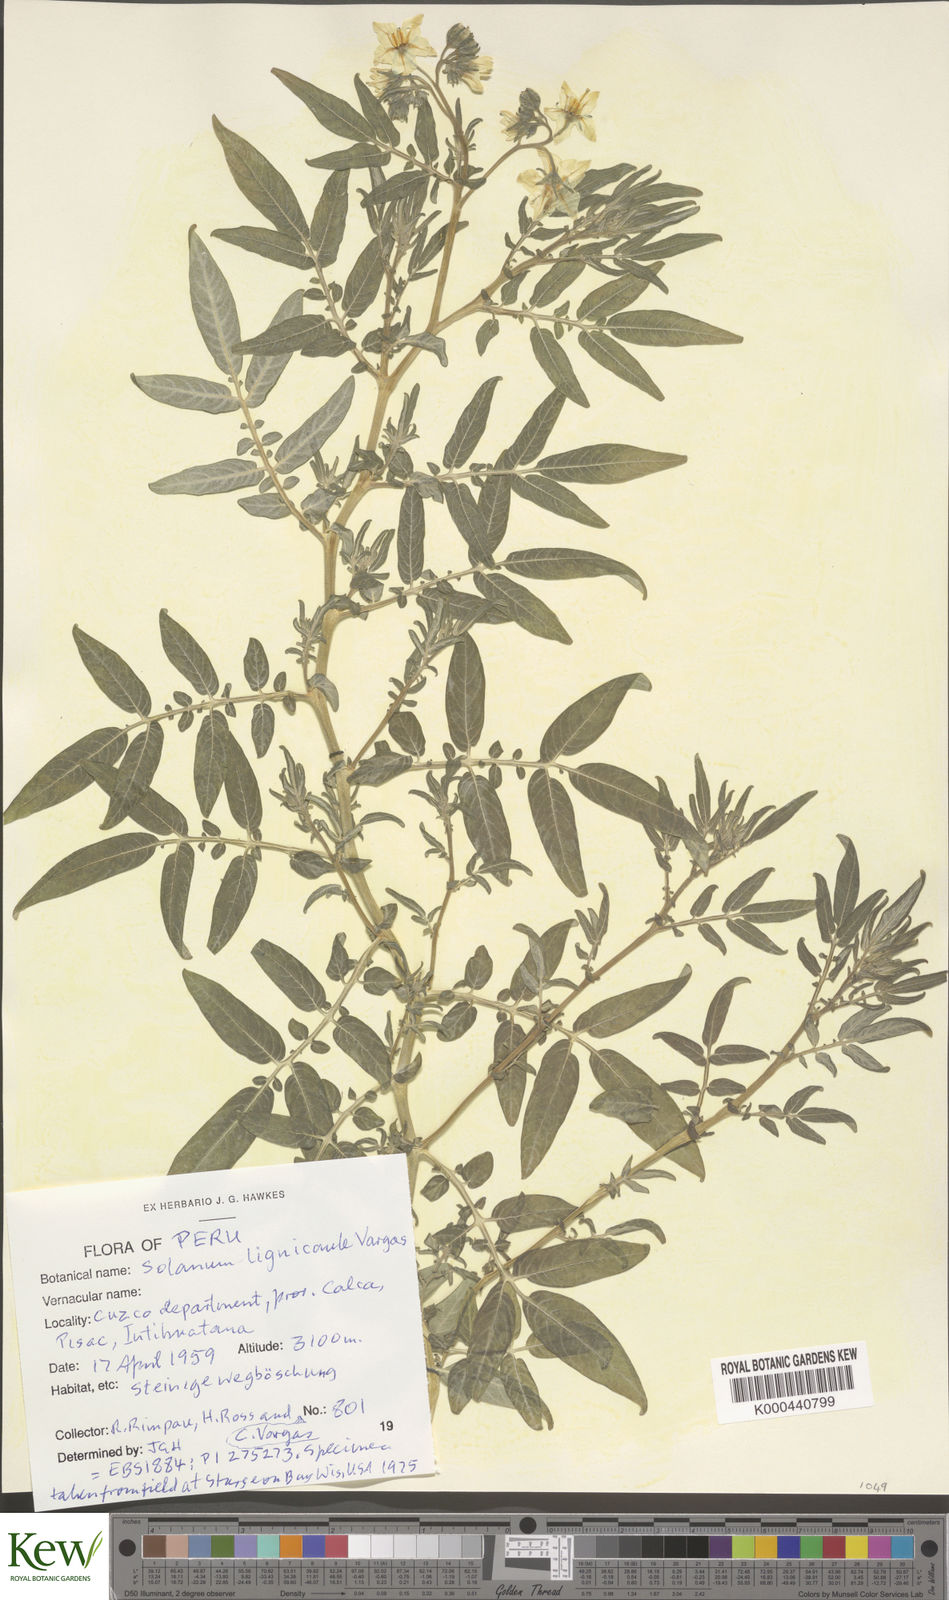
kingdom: Plantae
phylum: Tracheophyta
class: Magnoliopsida
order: Solanales
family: Solanaceae
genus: Solanum
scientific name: Solanum lignicaule
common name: Fox potato
